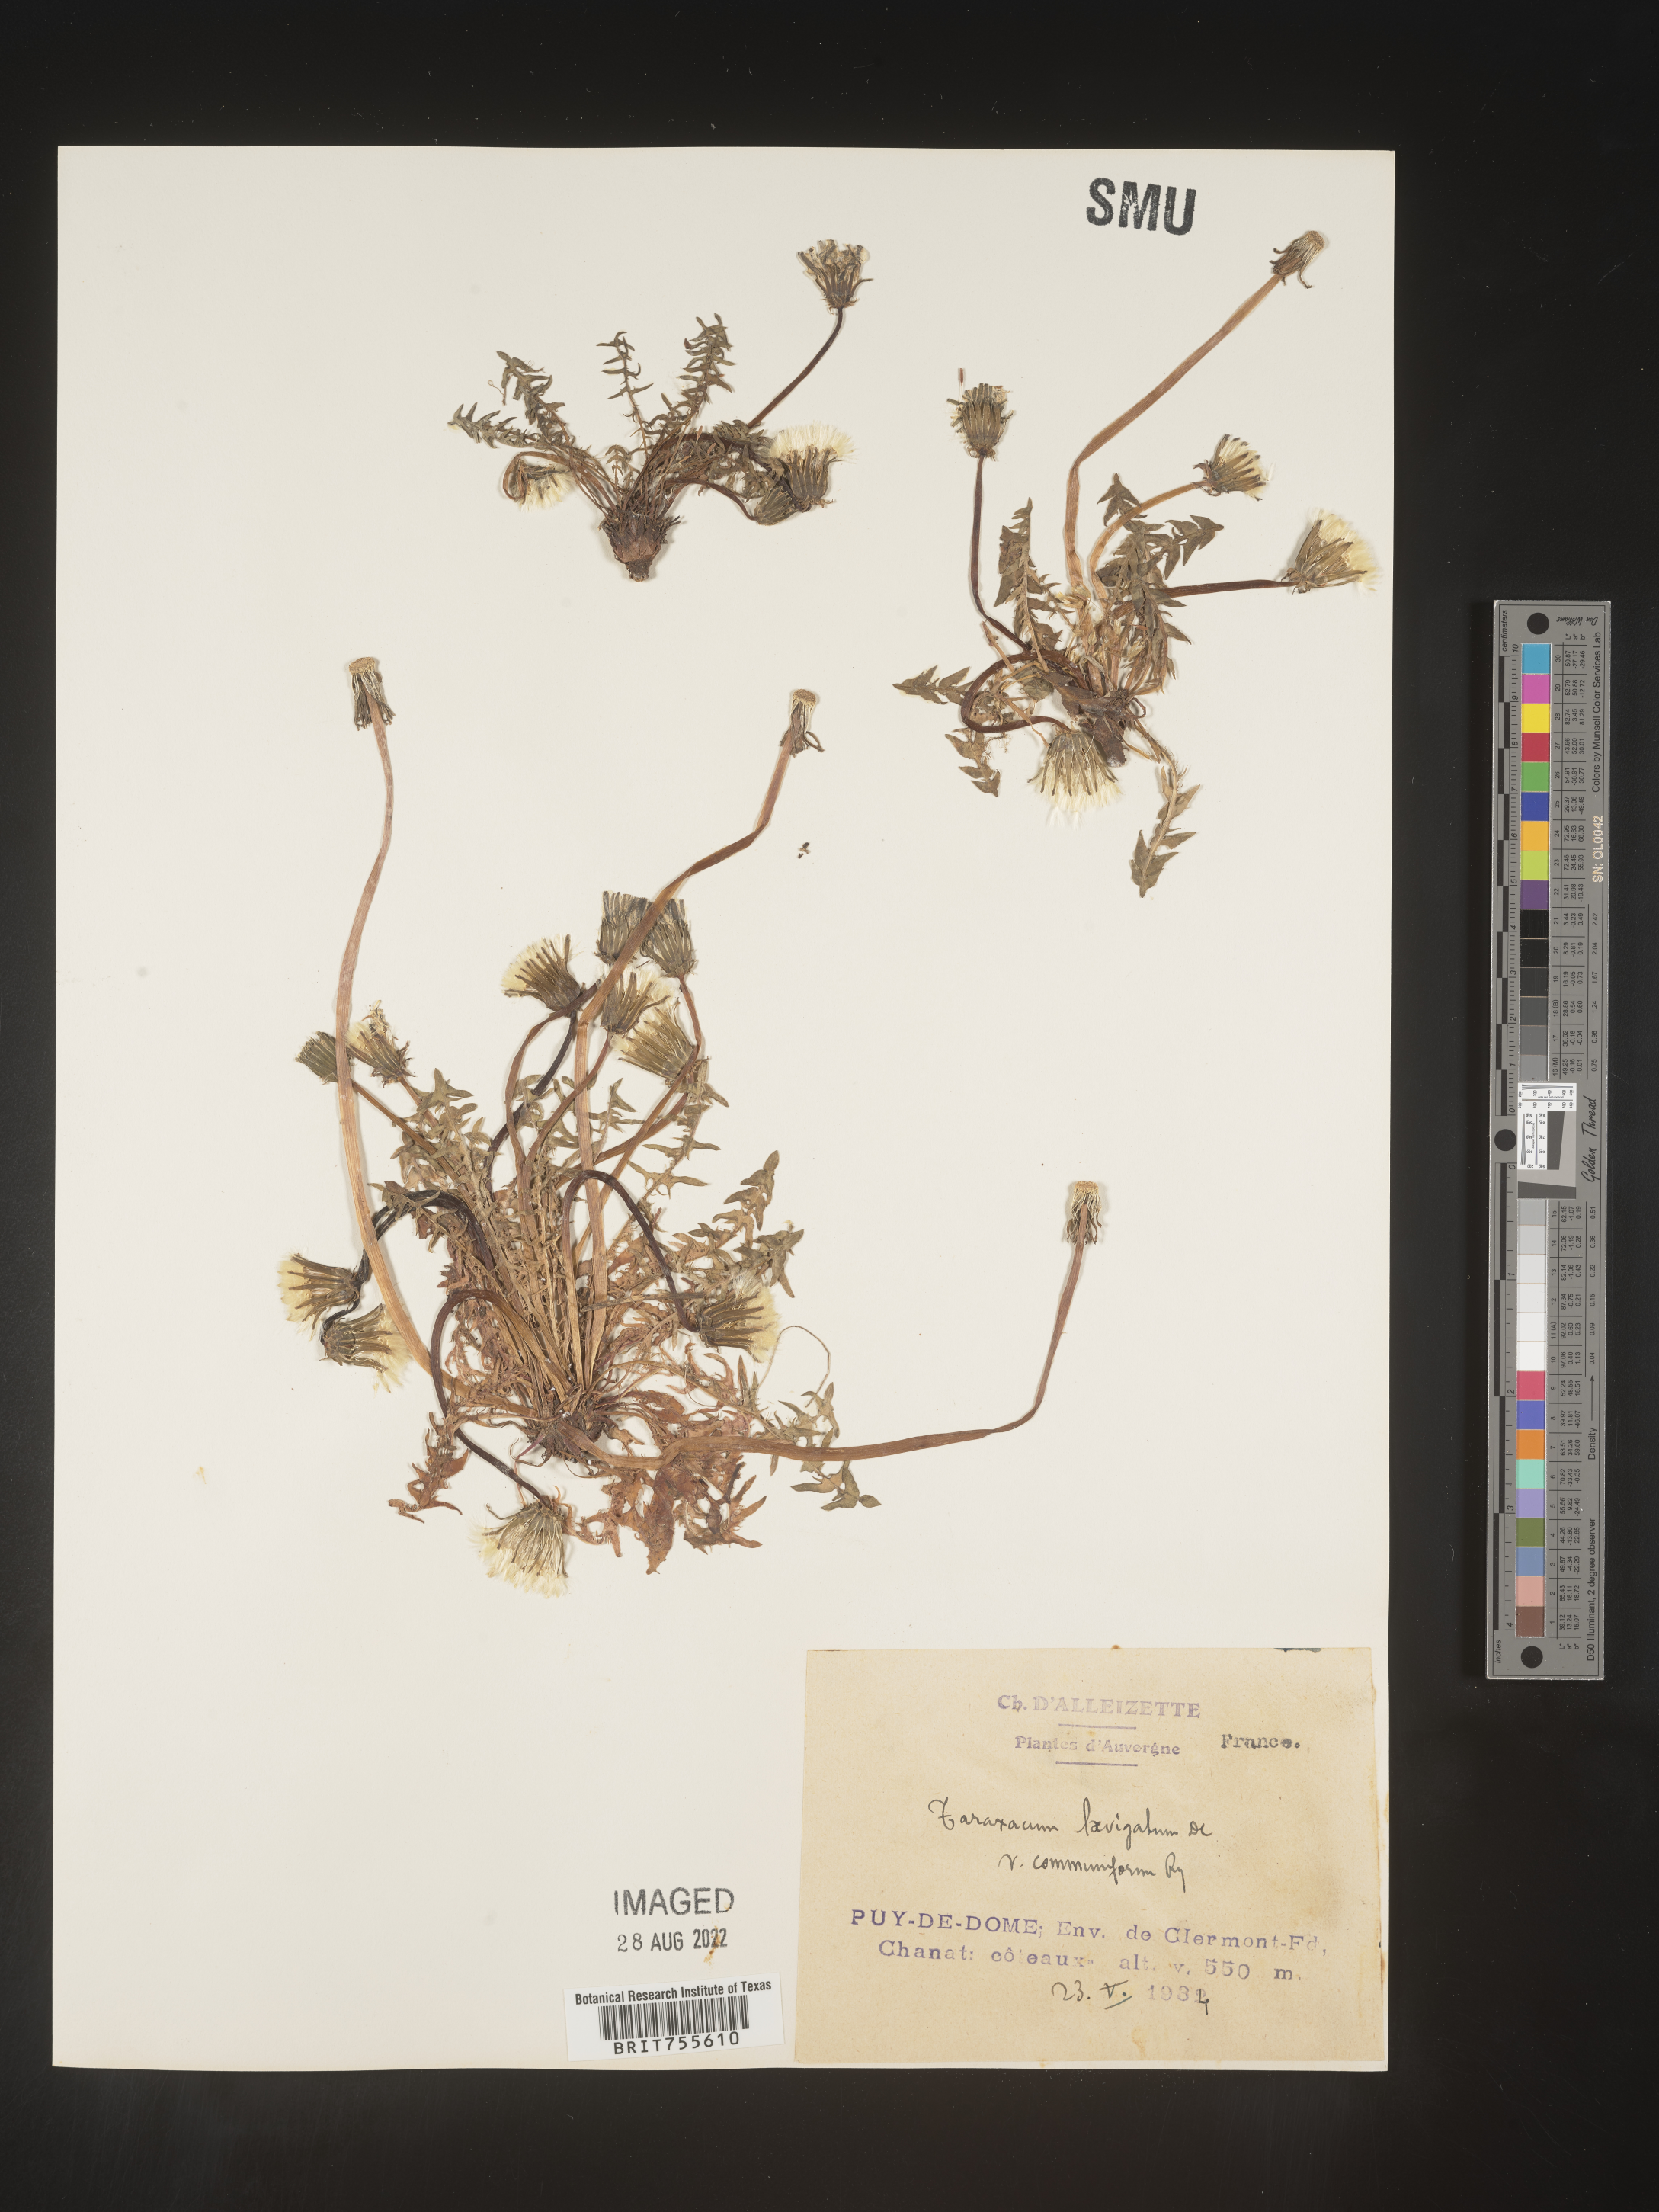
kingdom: Plantae
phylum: Tracheophyta
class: Magnoliopsida
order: Asterales
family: Asteraceae
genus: Taraxacum
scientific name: Taraxacum
